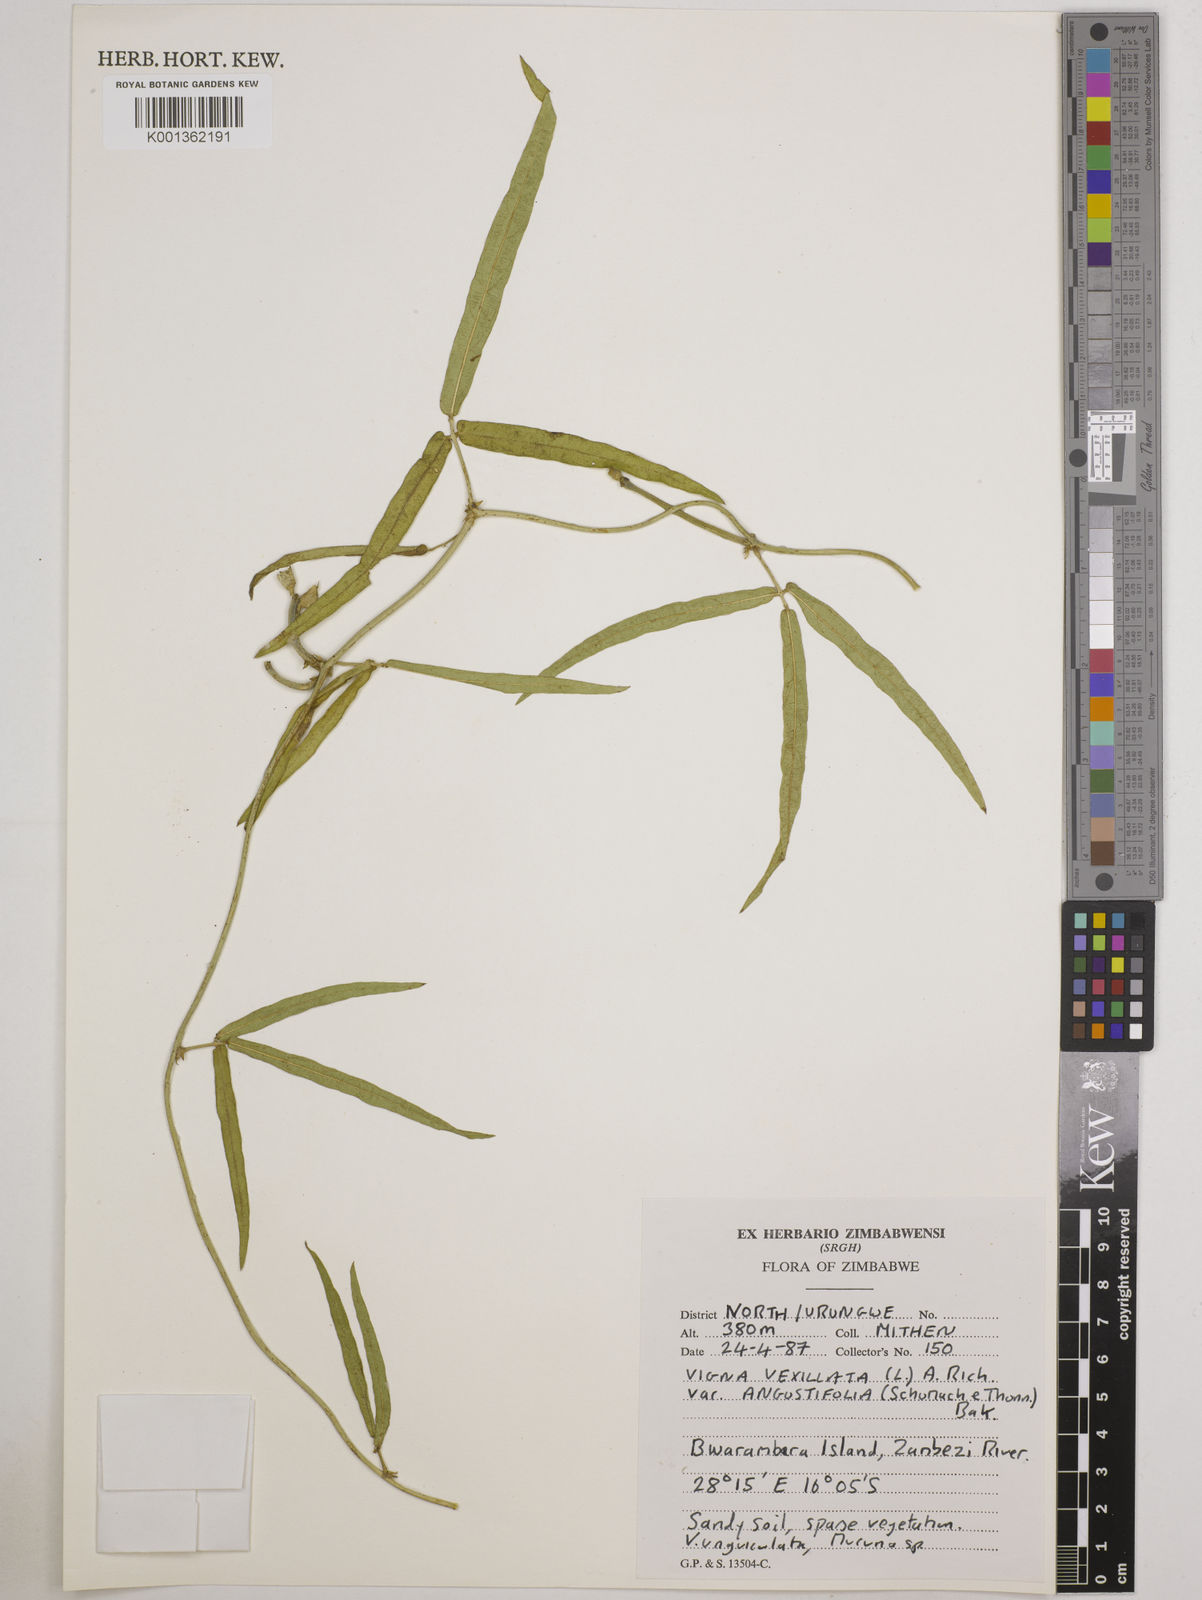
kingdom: Plantae
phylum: Tracheophyta
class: Magnoliopsida
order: Fabales
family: Fabaceae
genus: Vigna
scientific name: Vigna vexillata
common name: Zombi pea
